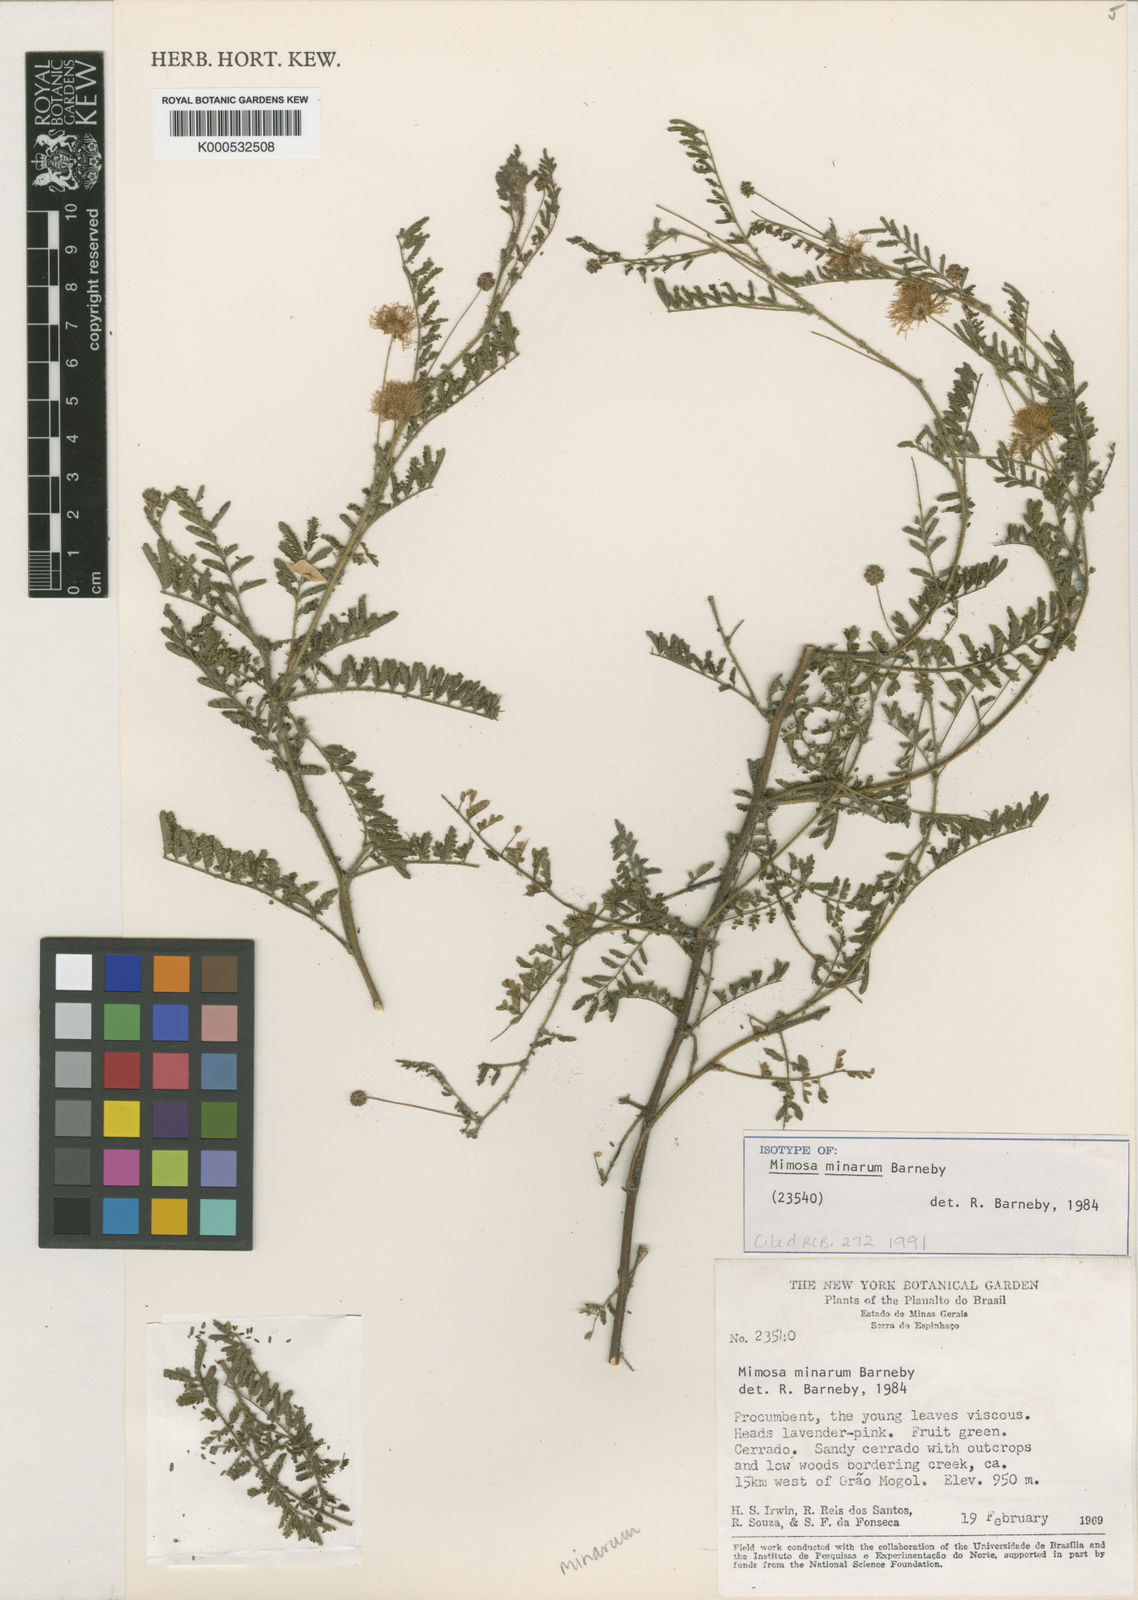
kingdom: Plantae
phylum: Tracheophyta
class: Magnoliopsida
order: Fabales
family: Fabaceae
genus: Mimosa
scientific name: Mimosa minarum
